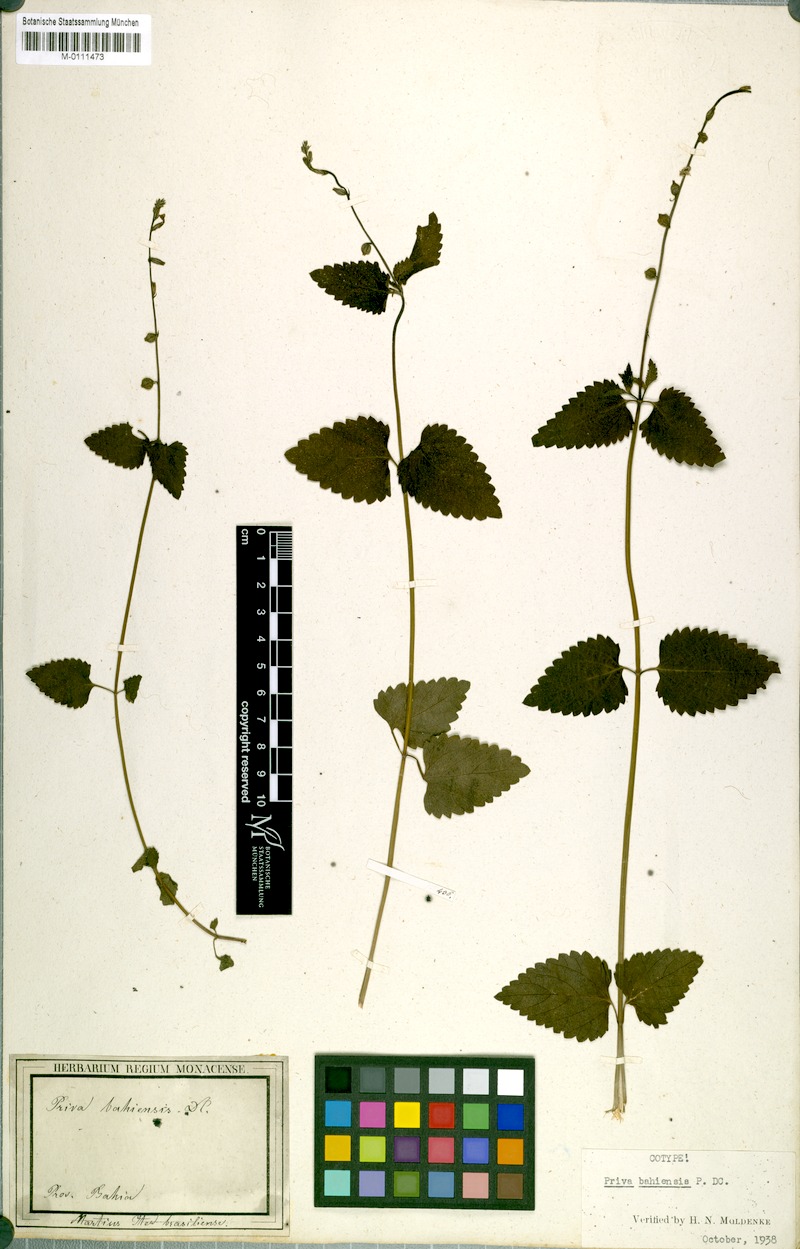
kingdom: Plantae
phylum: Tracheophyta
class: Magnoliopsida
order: Lamiales
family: Verbenaceae
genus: Priva
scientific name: Priva bahiensis
